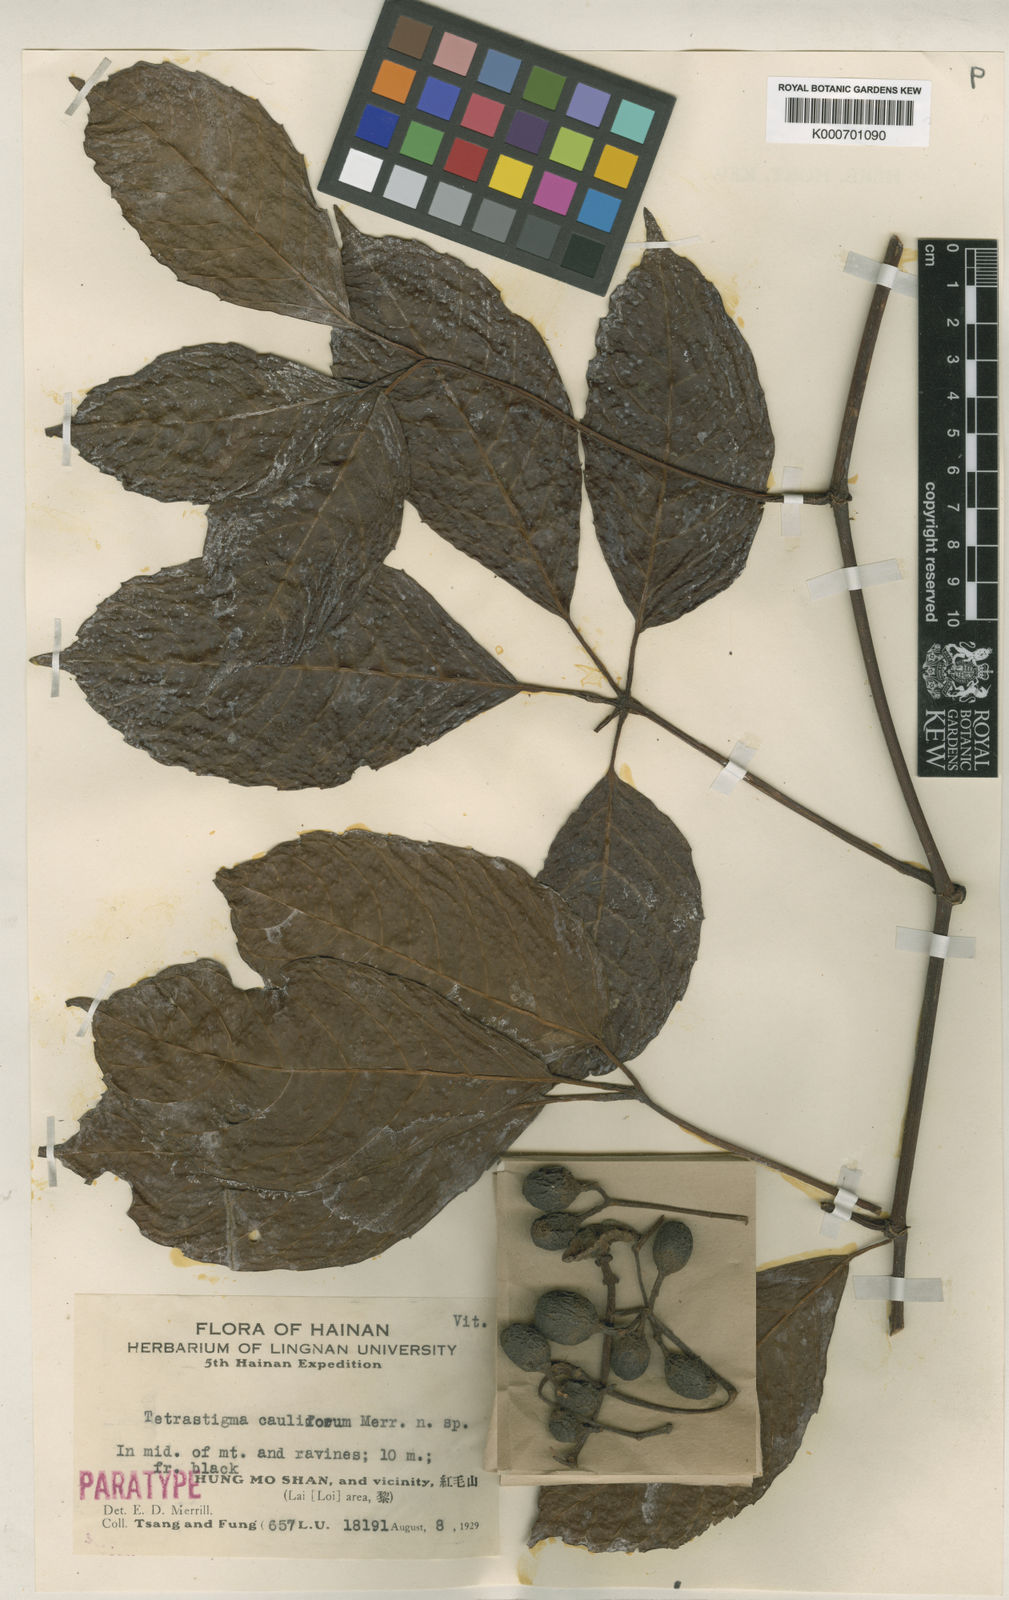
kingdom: Plantae
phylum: Tracheophyta
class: Magnoliopsida
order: Vitales
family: Vitaceae
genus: Tetrastigma
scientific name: Tetrastigma cauliflorum
